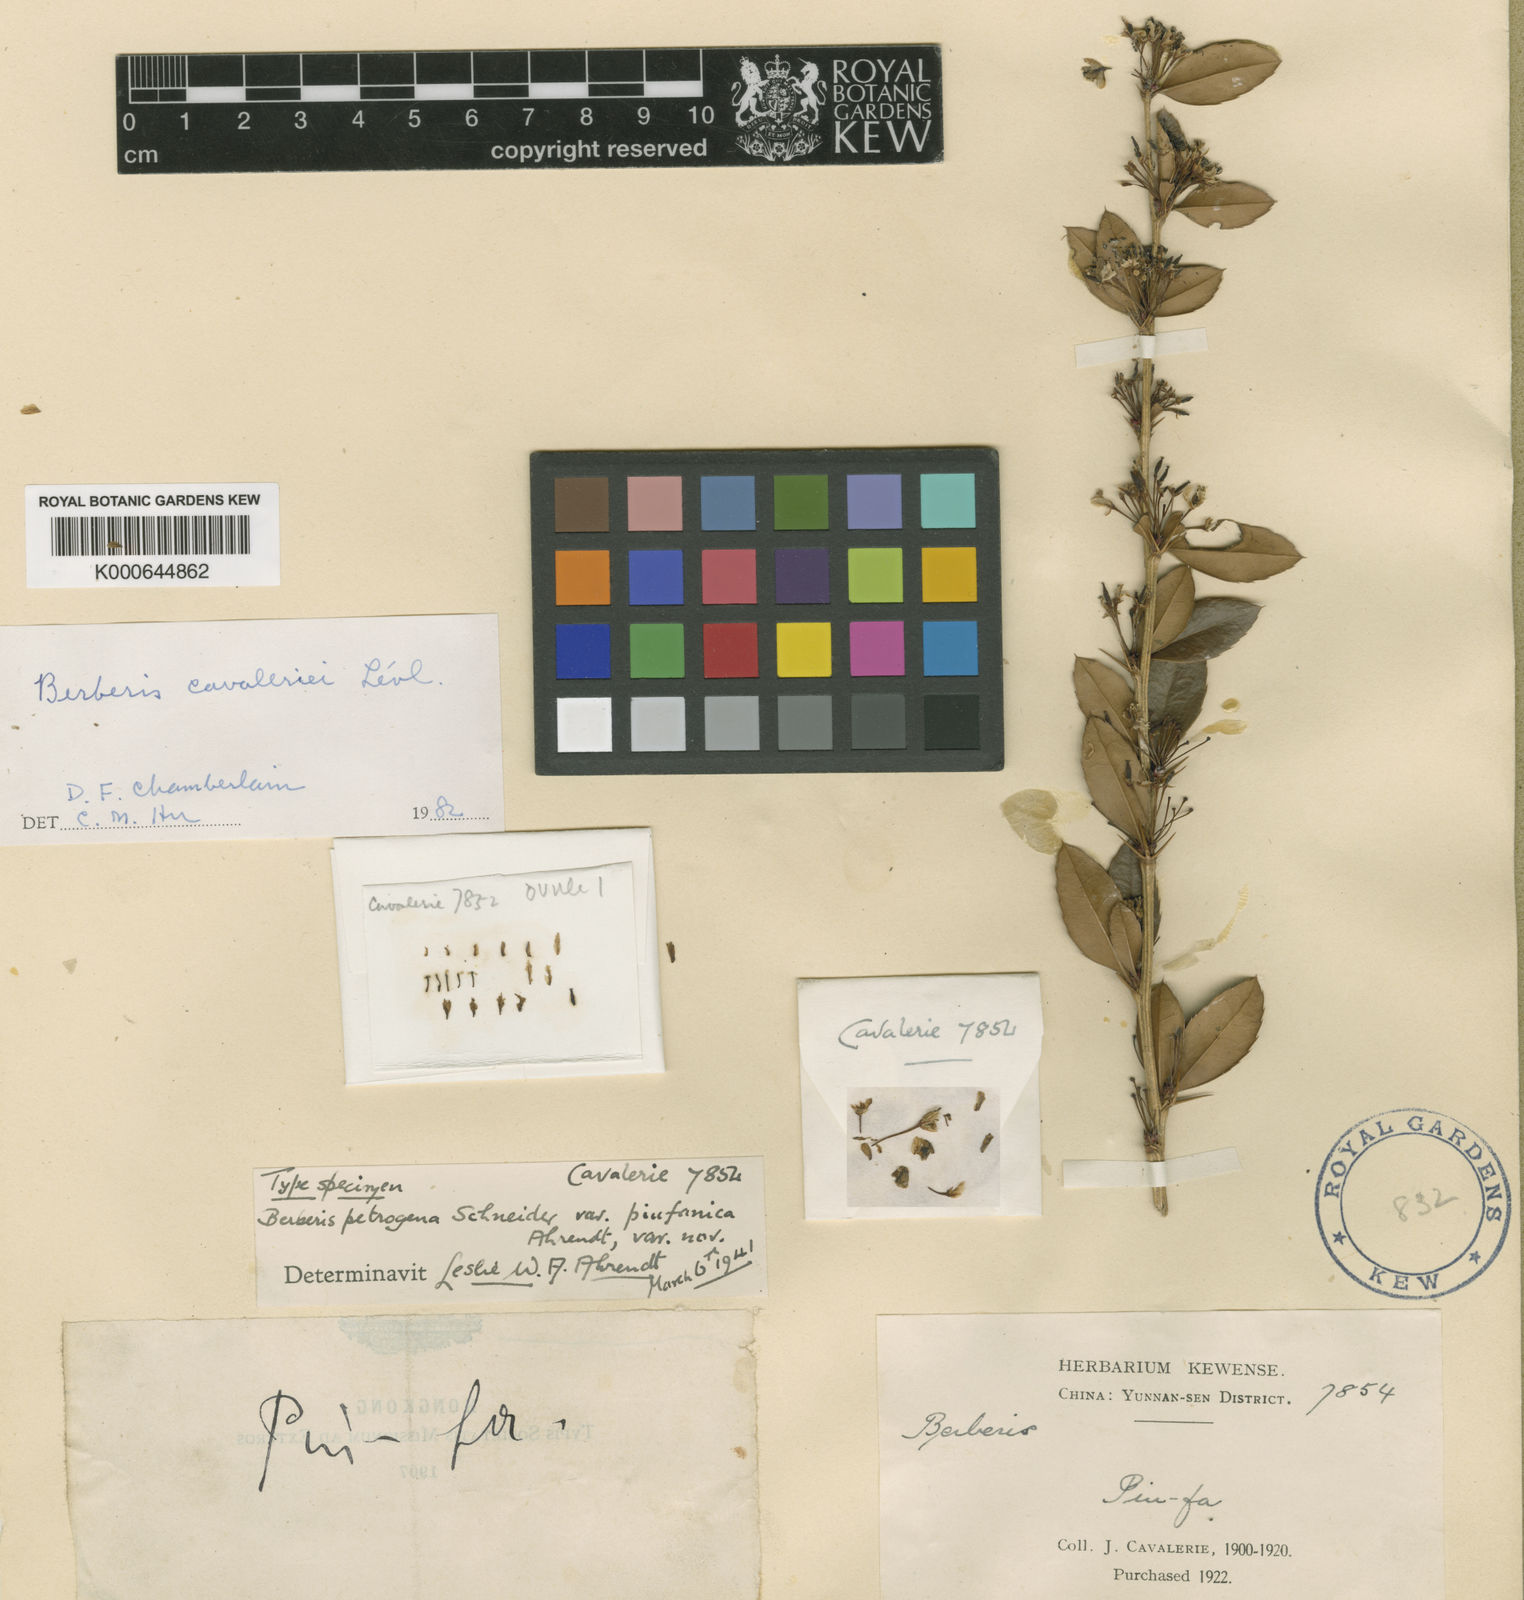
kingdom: Plantae
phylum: Tracheophyta
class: Magnoliopsida
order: Ranunculales
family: Berberidaceae
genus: Berberis
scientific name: Berberis
